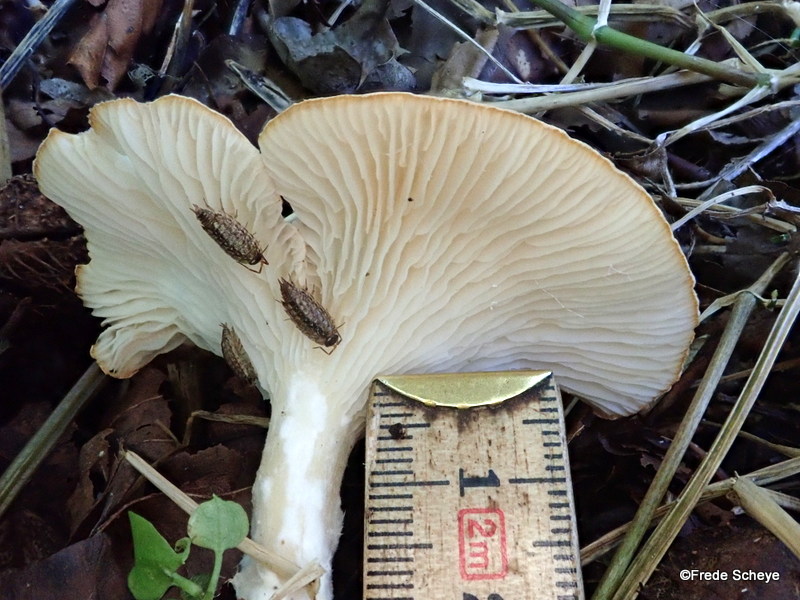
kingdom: Fungi
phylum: Basidiomycota
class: Agaricomycetes
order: Agaricales
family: Tricholomataceae
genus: Infundibulicybe
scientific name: Infundibulicybe gibba
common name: almindelig tragthat
